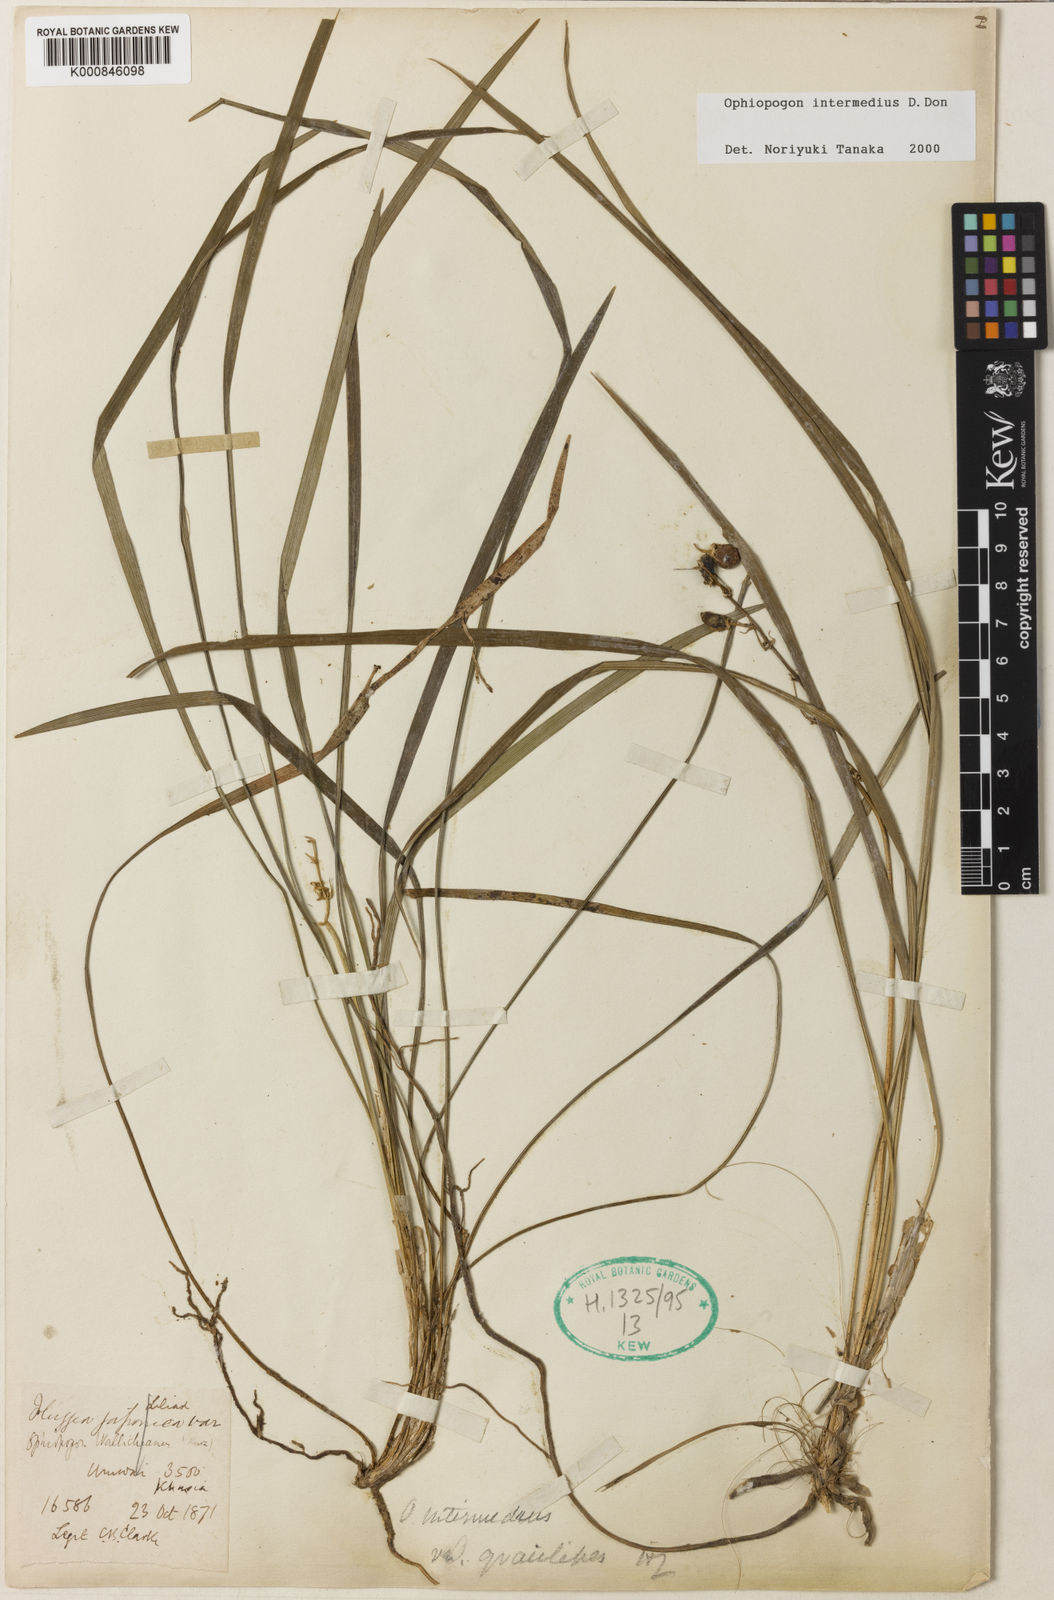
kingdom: Plantae
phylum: Tracheophyta
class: Liliopsida
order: Asparagales
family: Asparagaceae
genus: Ophiopogon
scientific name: Ophiopogon intermedius
